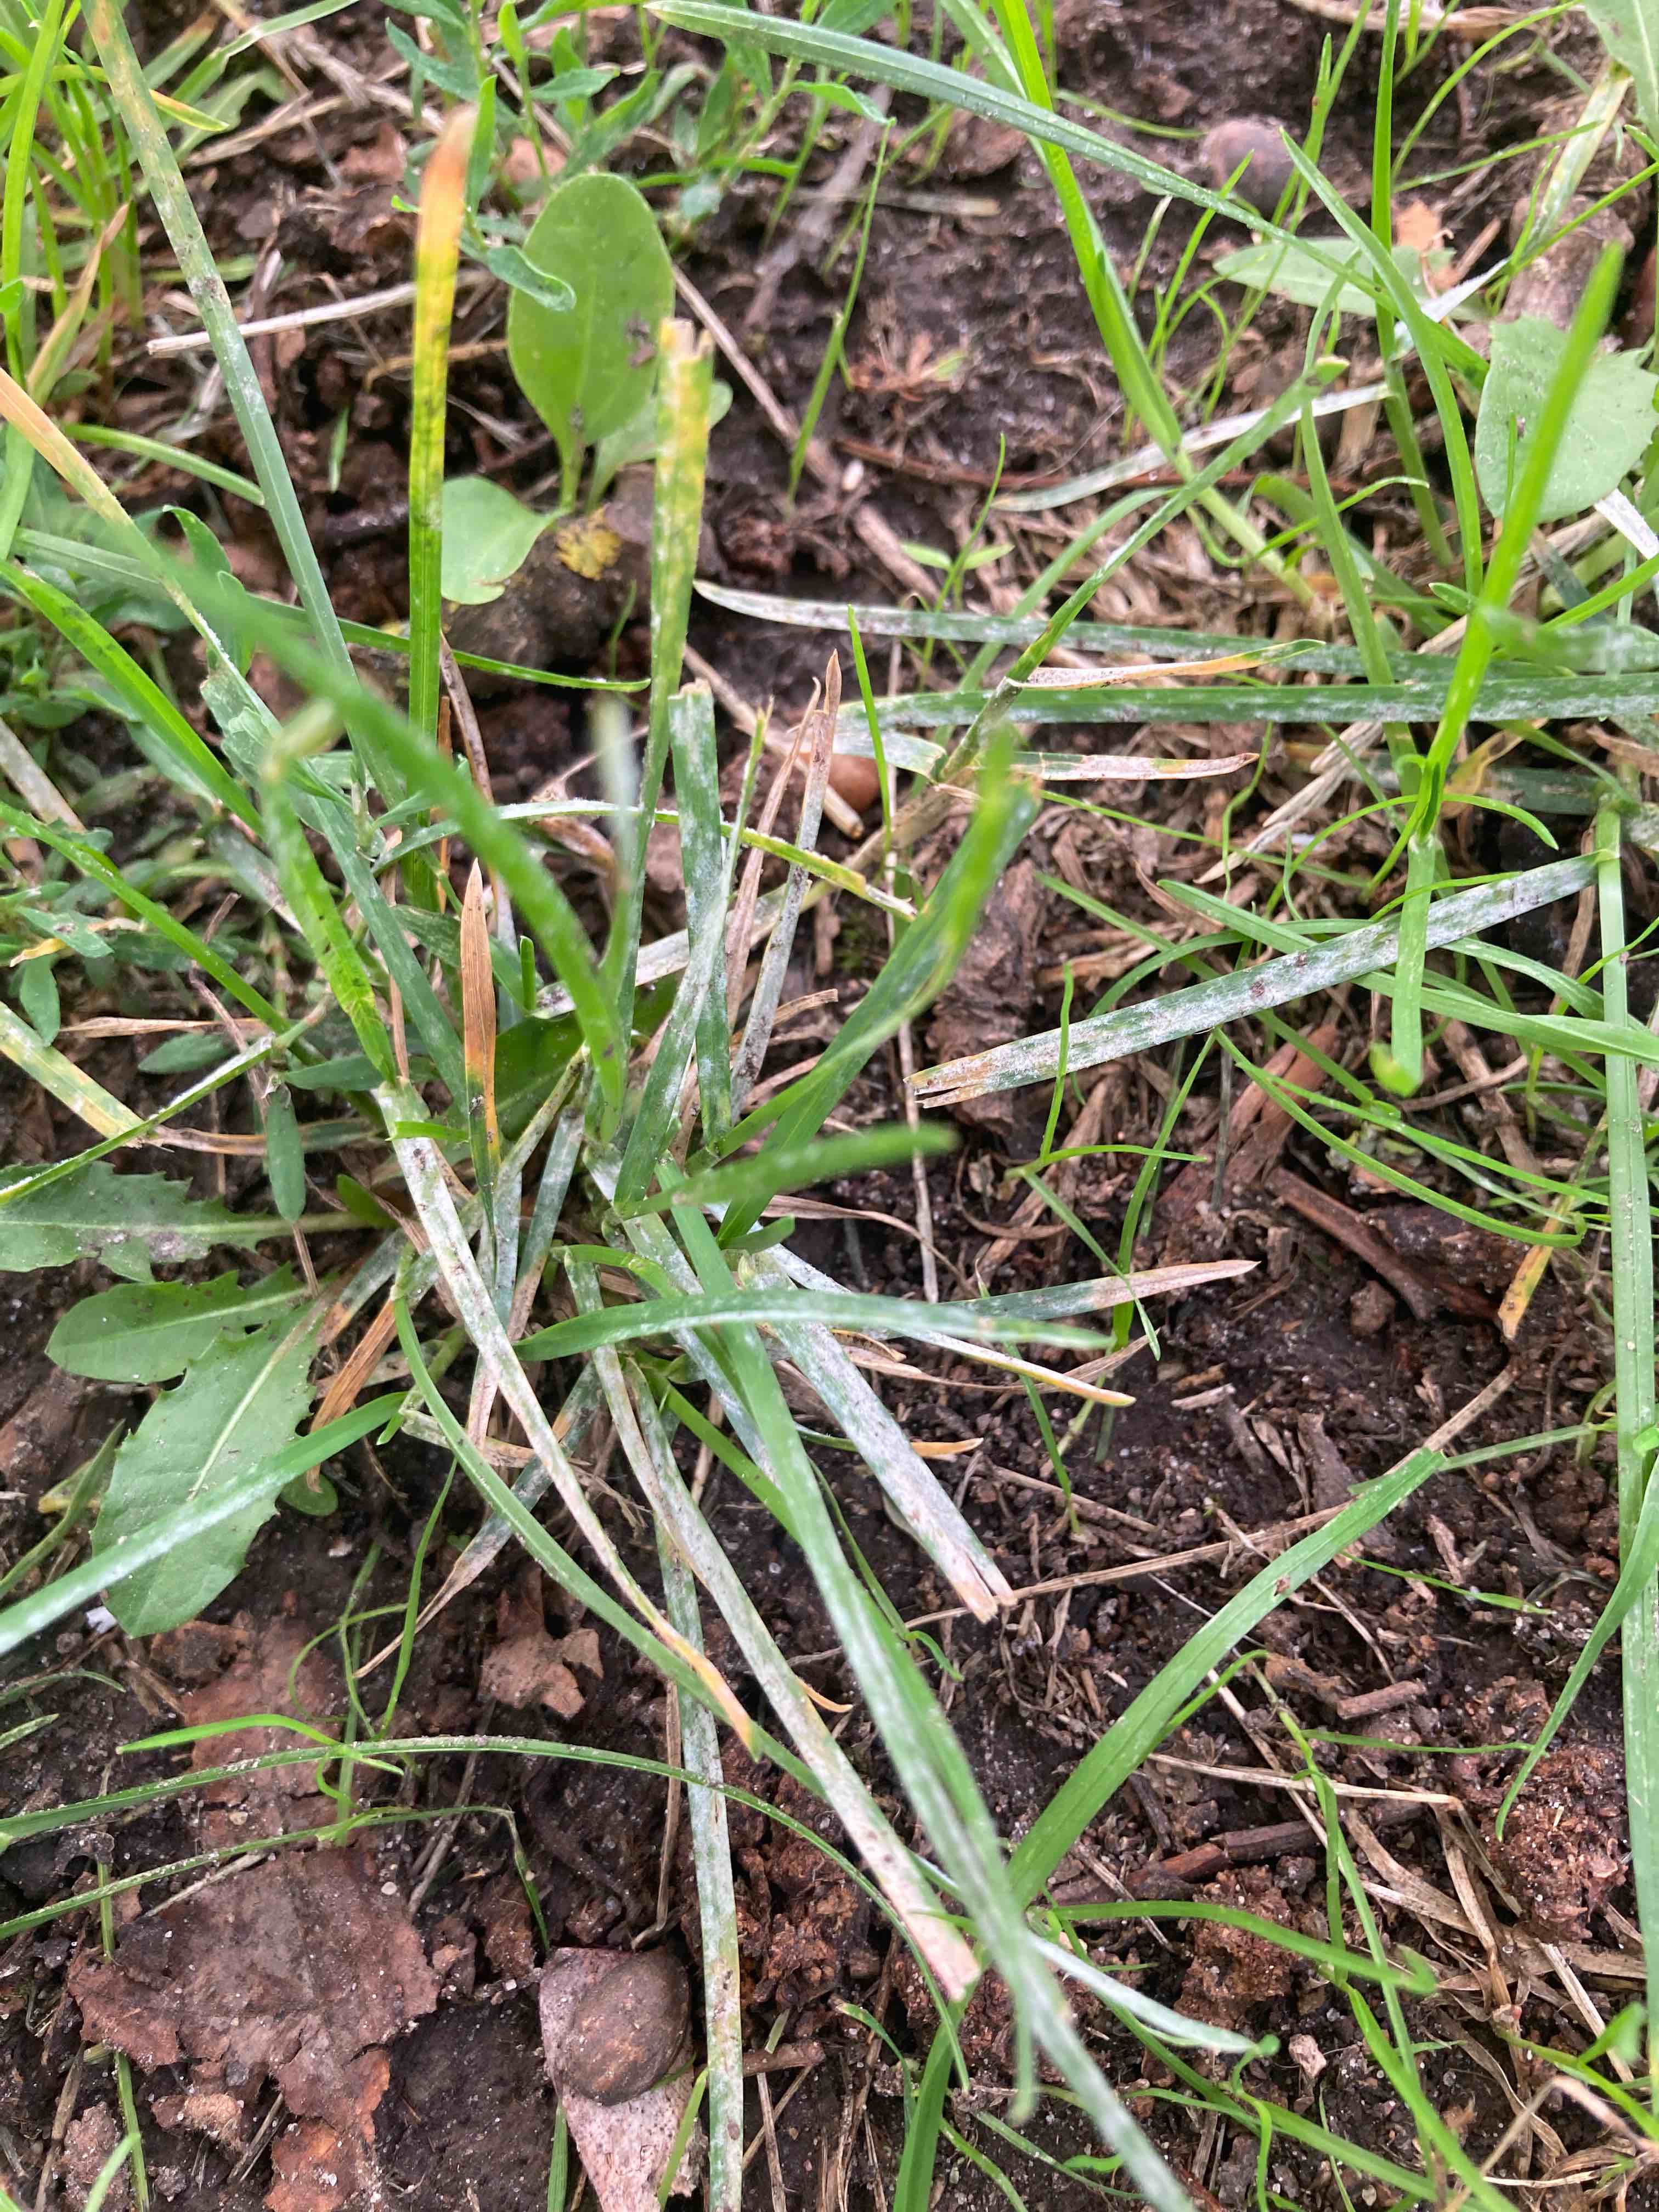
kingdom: Fungi
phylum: Ascomycota
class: Leotiomycetes
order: Helotiales
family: Erysiphaceae
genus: Blumeria
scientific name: Blumeria graminis
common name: græs-meldug
